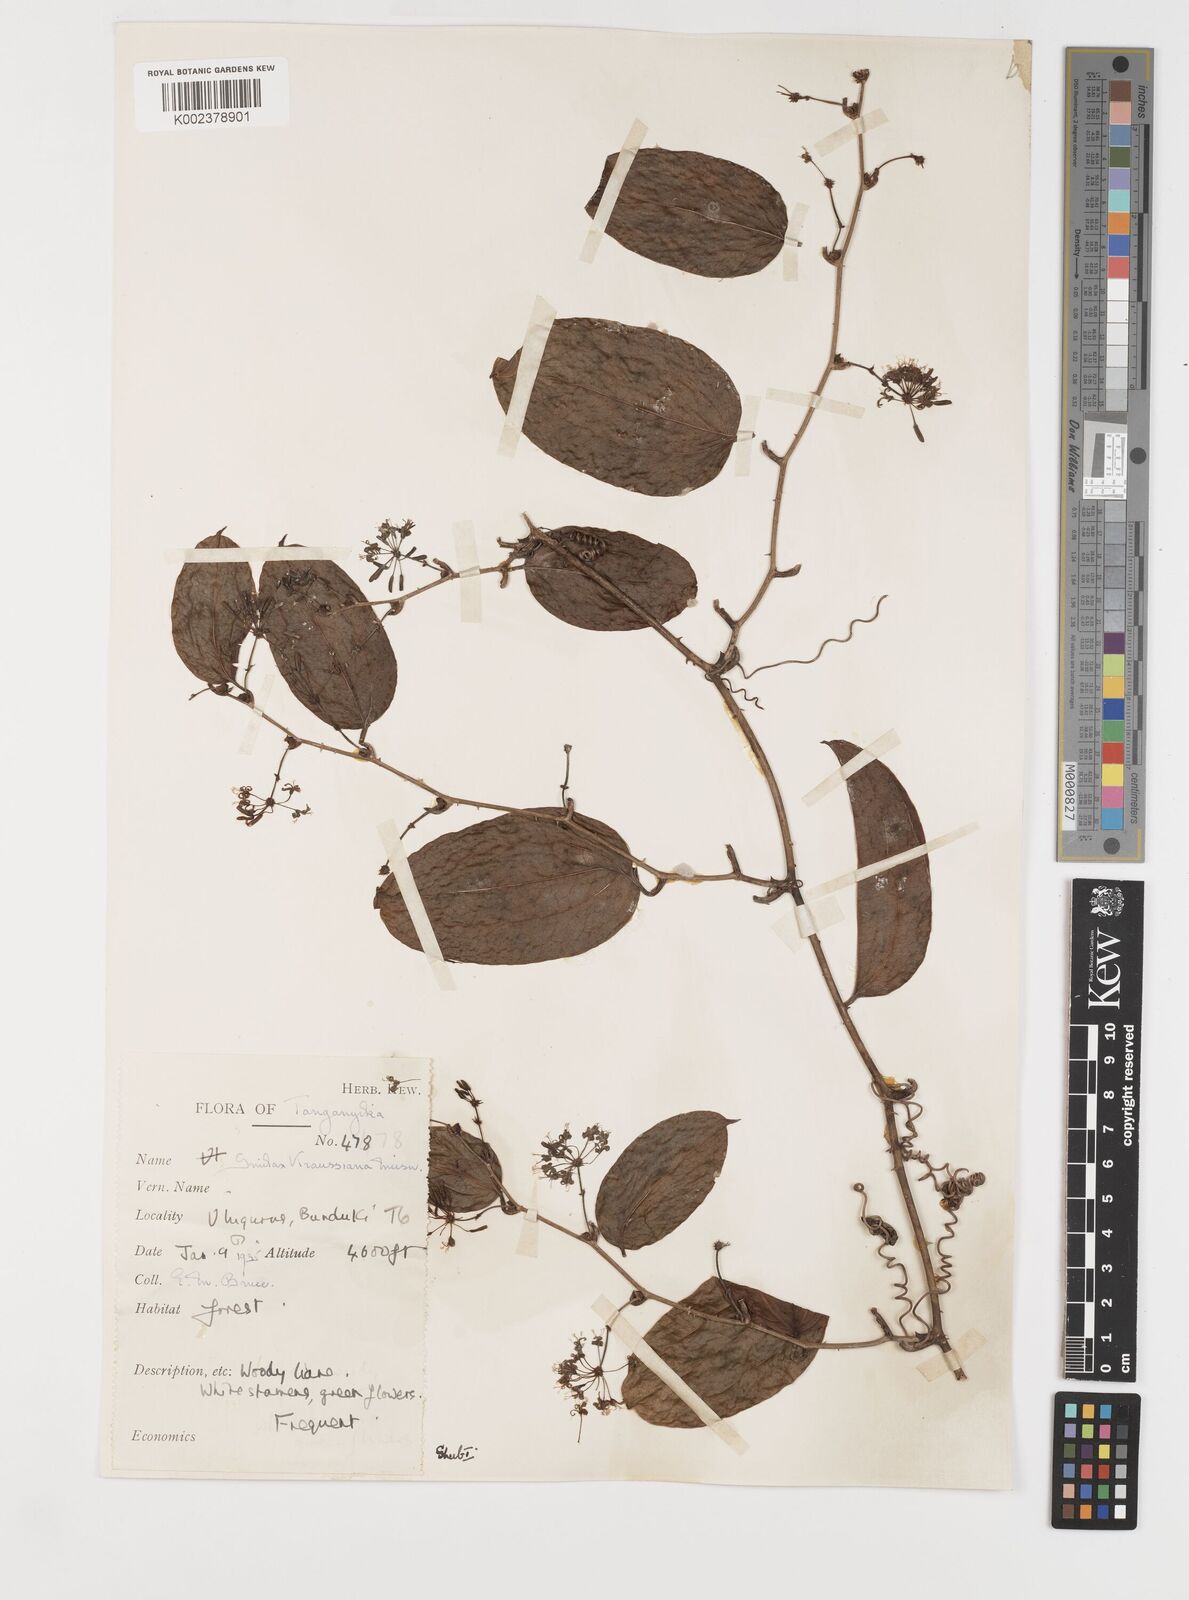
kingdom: Plantae
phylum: Tracheophyta
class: Liliopsida
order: Liliales
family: Smilacaceae
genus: Smilax
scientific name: Smilax anceps
